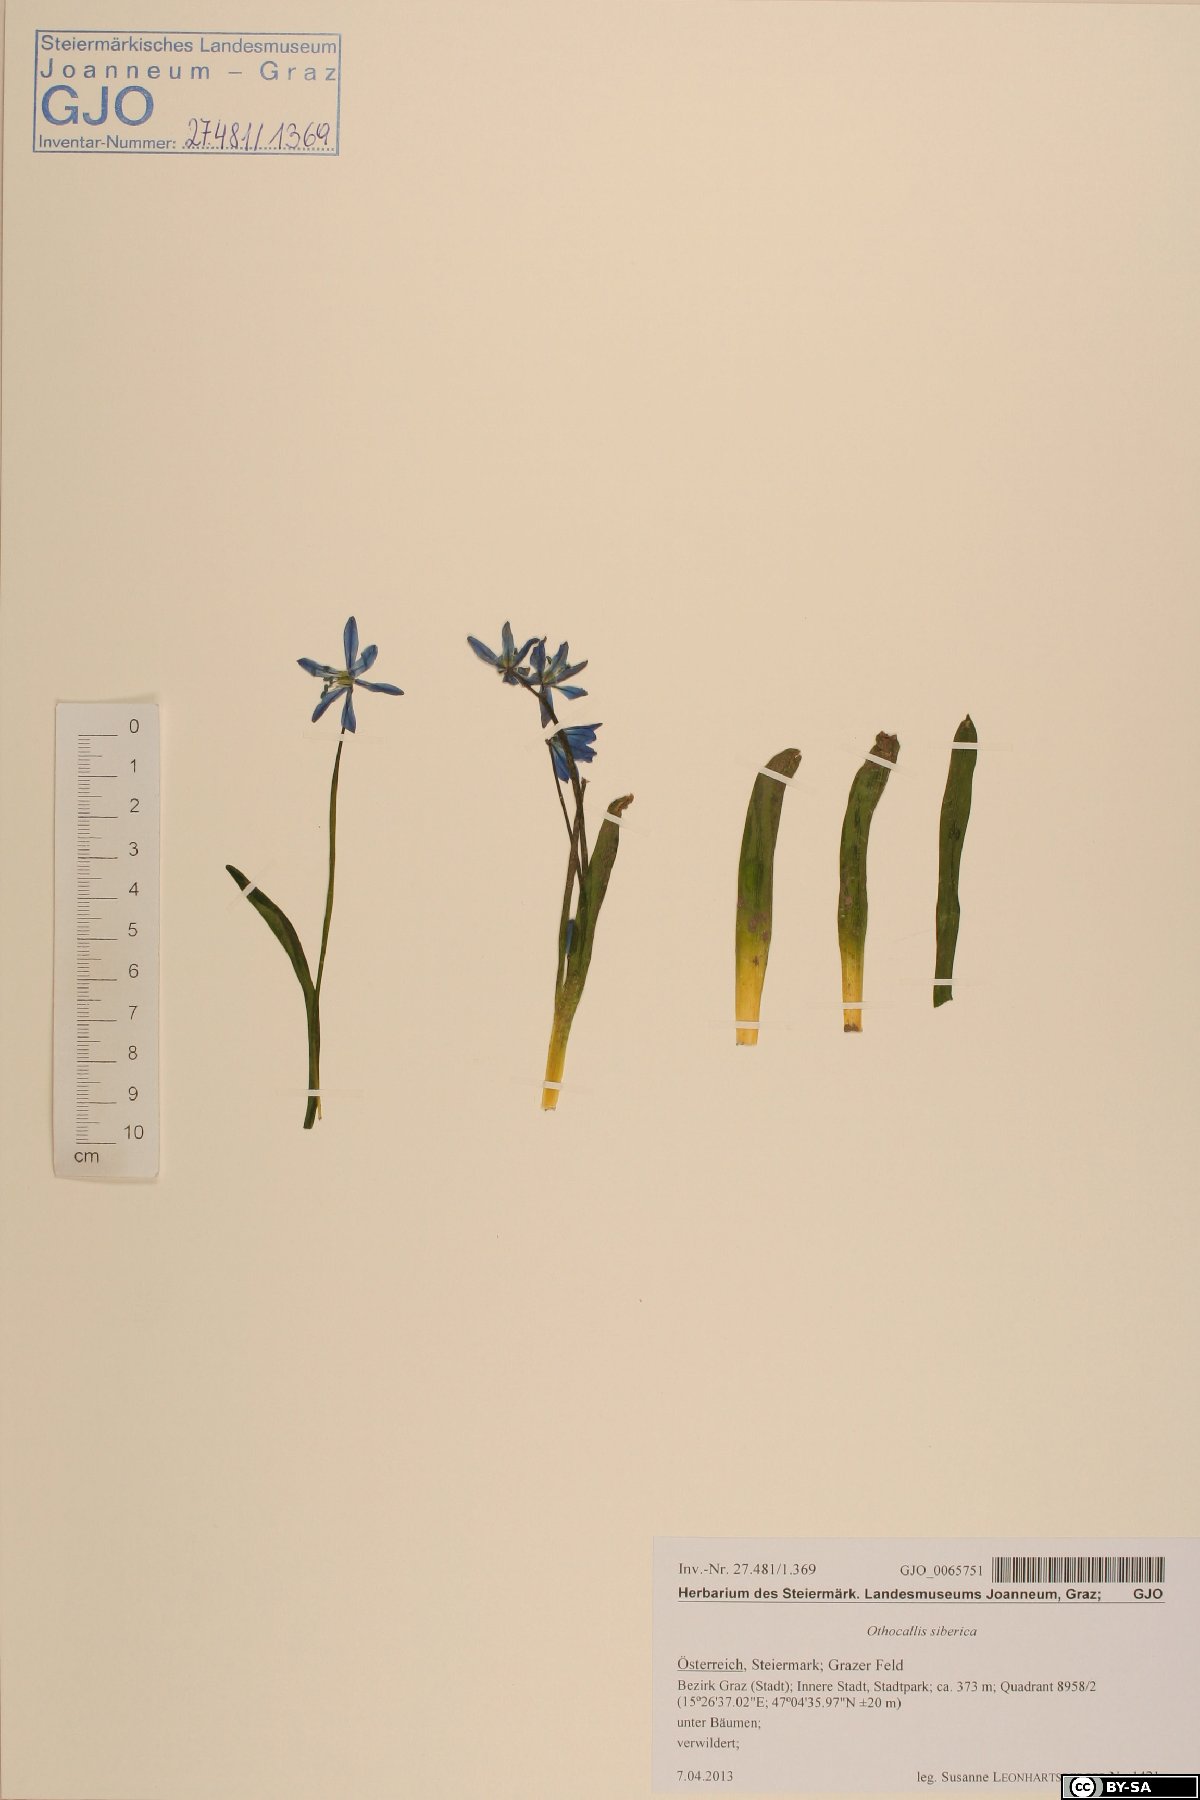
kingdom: Plantae
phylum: Tracheophyta
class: Liliopsida
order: Asparagales
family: Asparagaceae
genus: Scilla
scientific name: Scilla siberica
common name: Siberian squill
